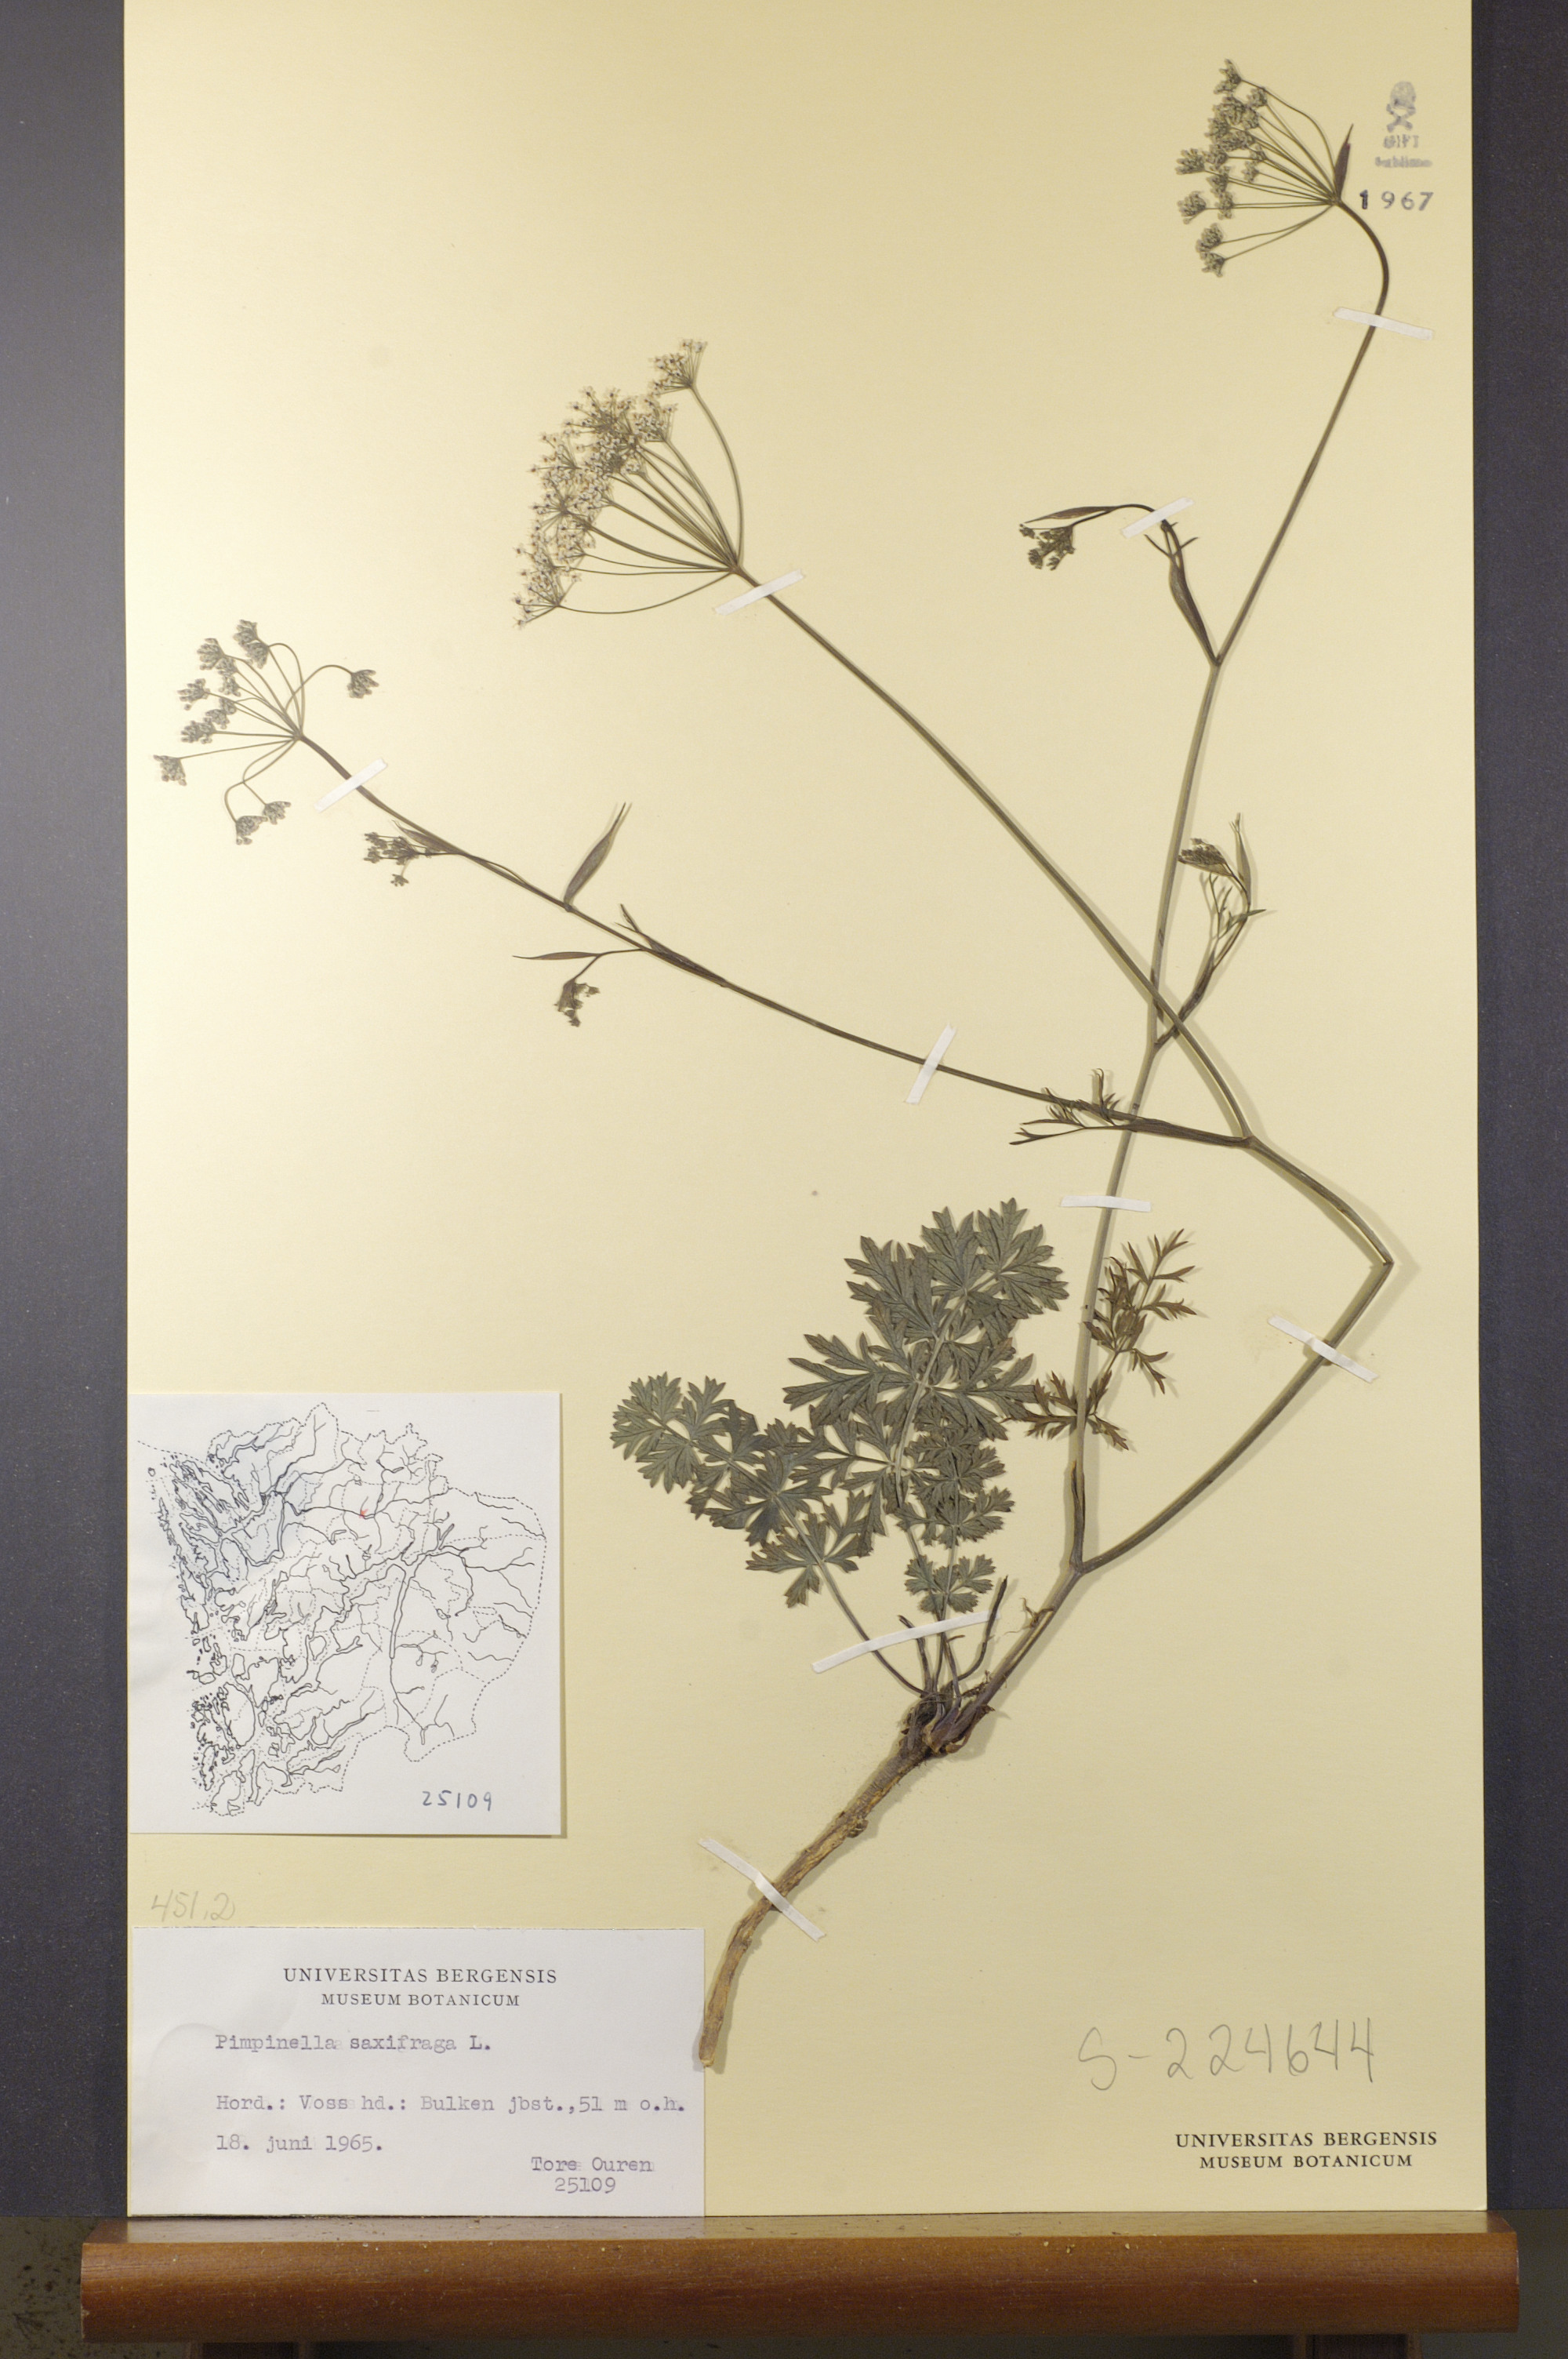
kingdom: Plantae
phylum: Tracheophyta
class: Magnoliopsida
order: Apiales
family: Apiaceae
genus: Pimpinella
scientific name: Pimpinella saxifraga
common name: Burnet-saxifrage
